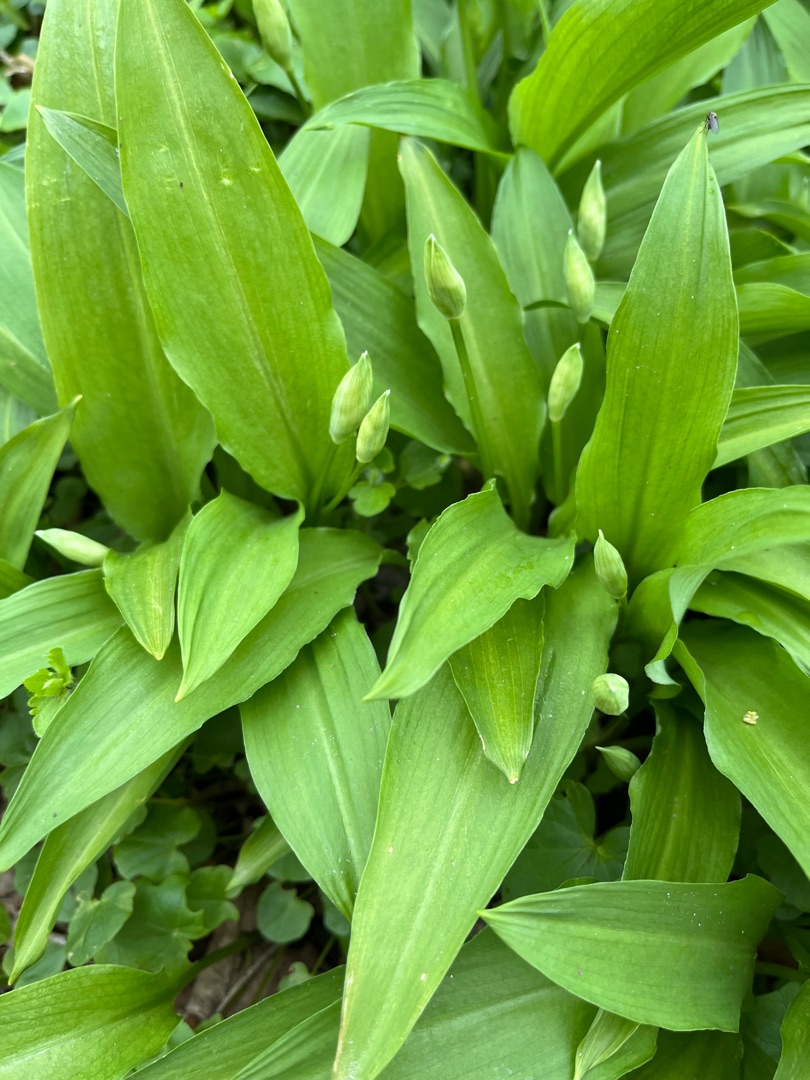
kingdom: Plantae
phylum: Tracheophyta
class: Liliopsida
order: Asparagales
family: Amaryllidaceae
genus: Allium
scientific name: Allium ursinum
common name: Rams-løg
